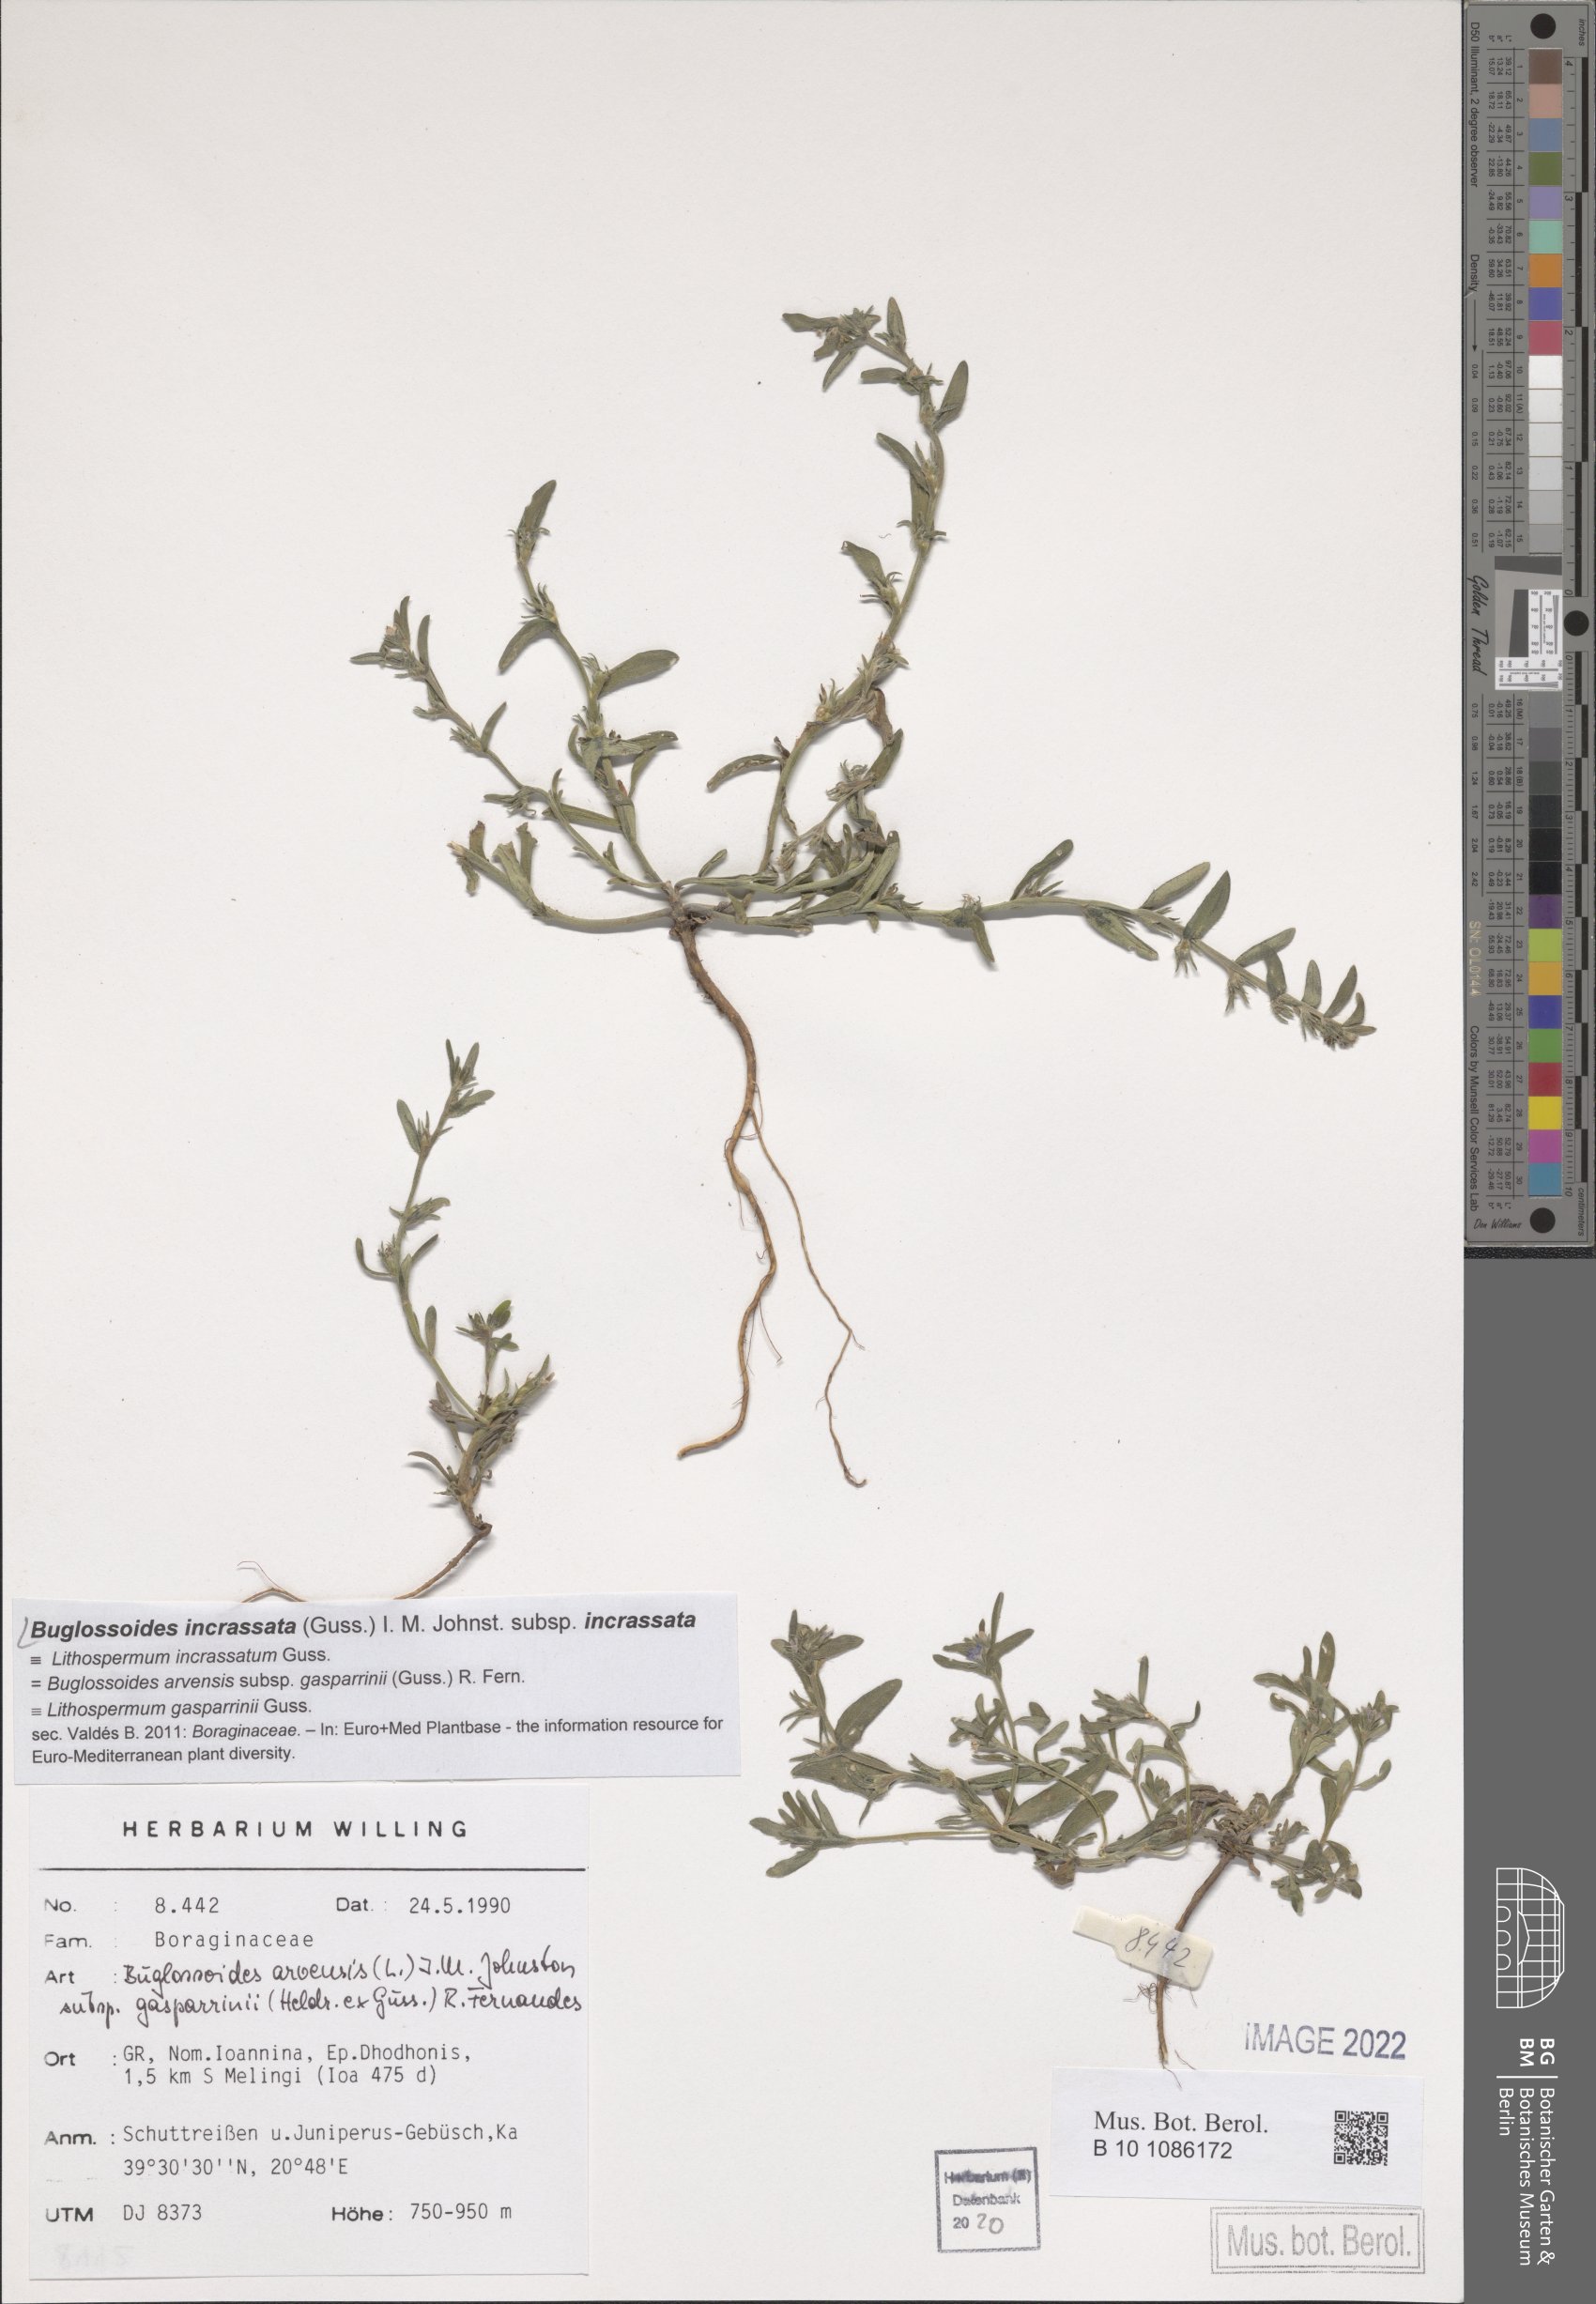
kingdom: Plantae
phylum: Tracheophyta
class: Magnoliopsida
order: Boraginales
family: Boraginaceae
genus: Buglossoides
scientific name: Buglossoides incrassata
